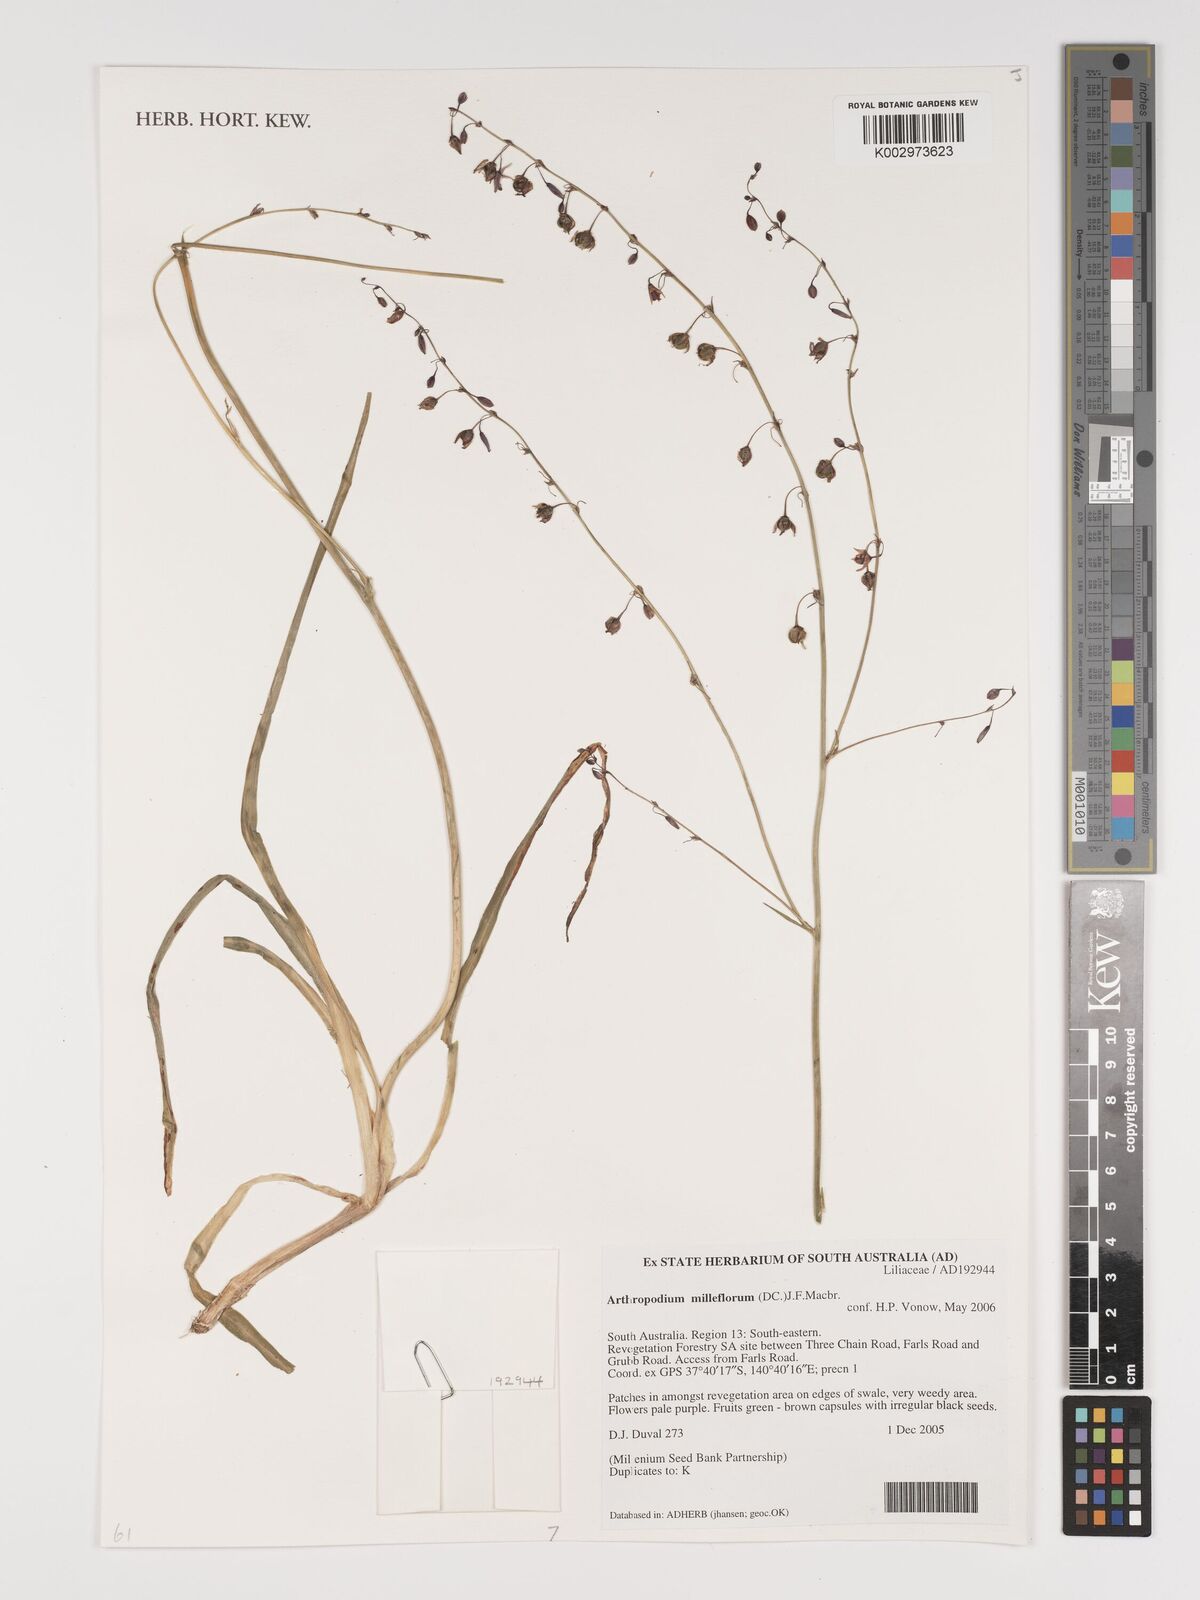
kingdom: Plantae
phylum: Tracheophyta
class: Liliopsida
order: Asparagales
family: Asparagaceae
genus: Arthropodium
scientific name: Arthropodium milleflorum
